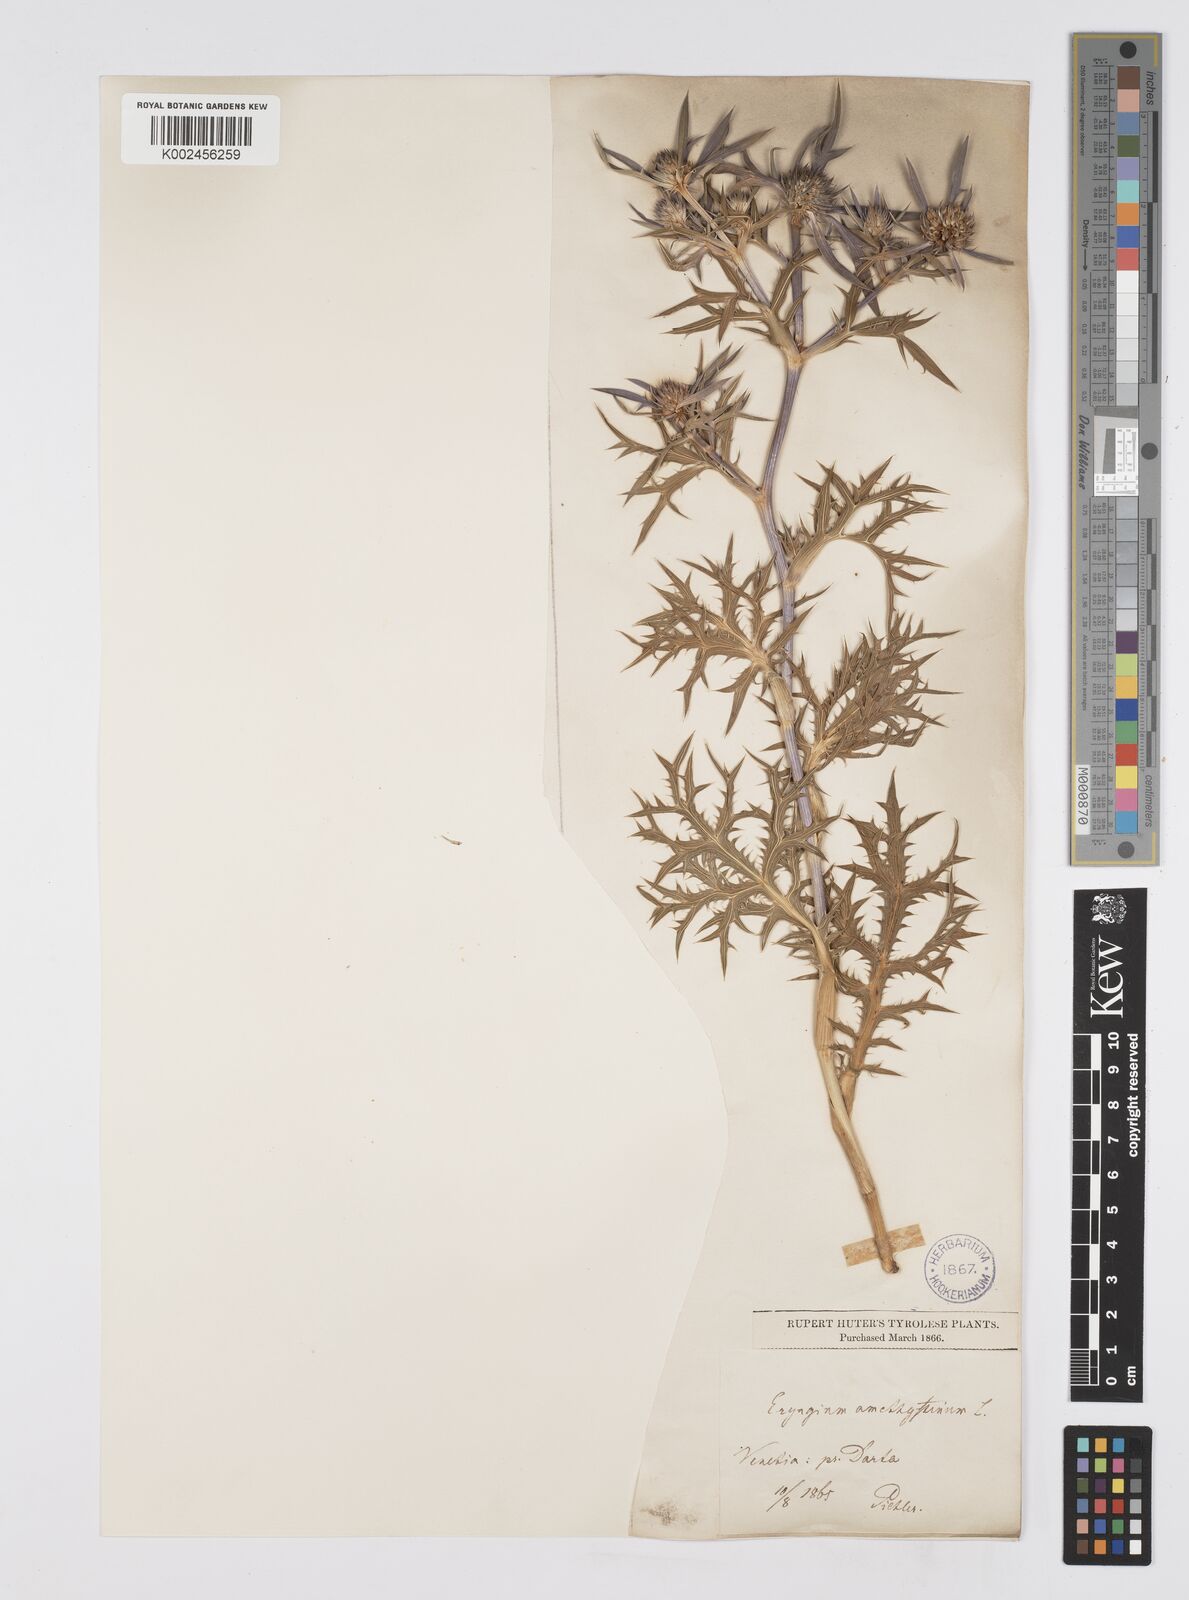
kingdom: Plantae
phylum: Tracheophyta
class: Magnoliopsida
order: Apiales
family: Apiaceae
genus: Eryngium
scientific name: Eryngium amethystinum
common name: Amethyst eryngo
